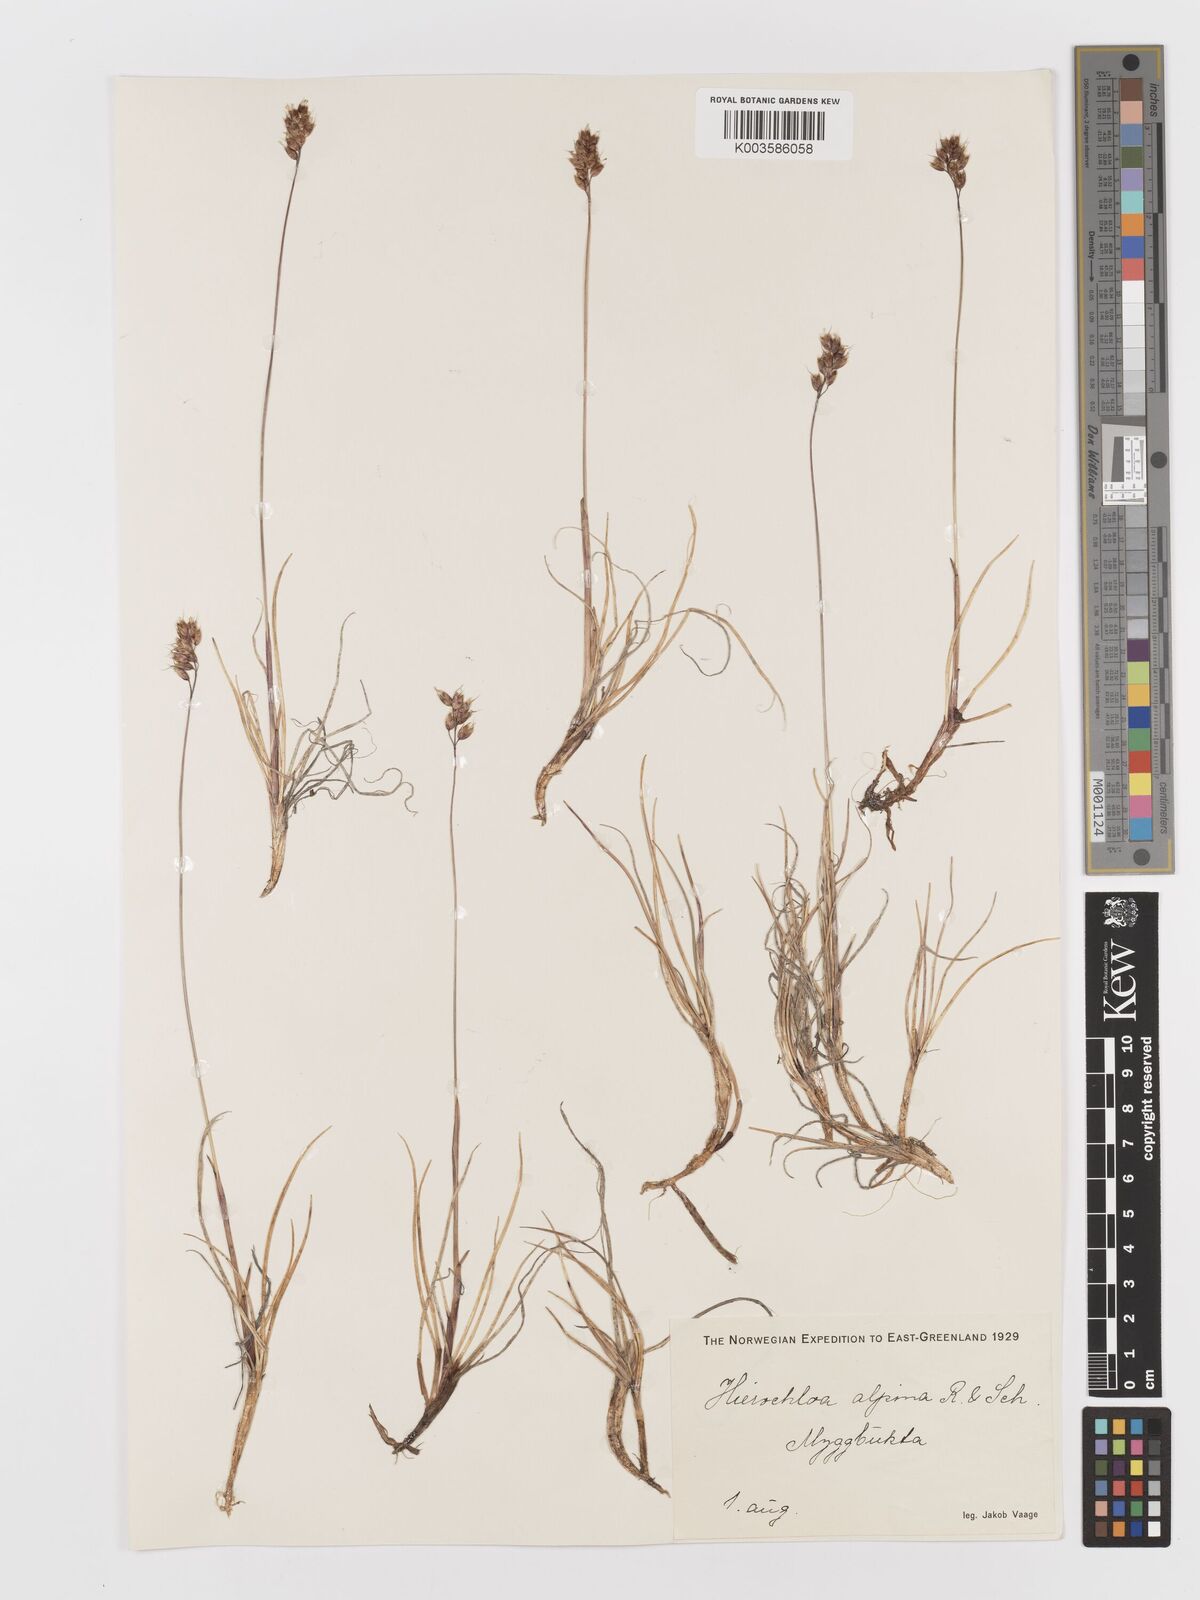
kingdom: Plantae
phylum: Tracheophyta
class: Liliopsida
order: Poales
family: Poaceae
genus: Anthoxanthum
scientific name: Anthoxanthum monticola
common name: Alpine sweetgrass
